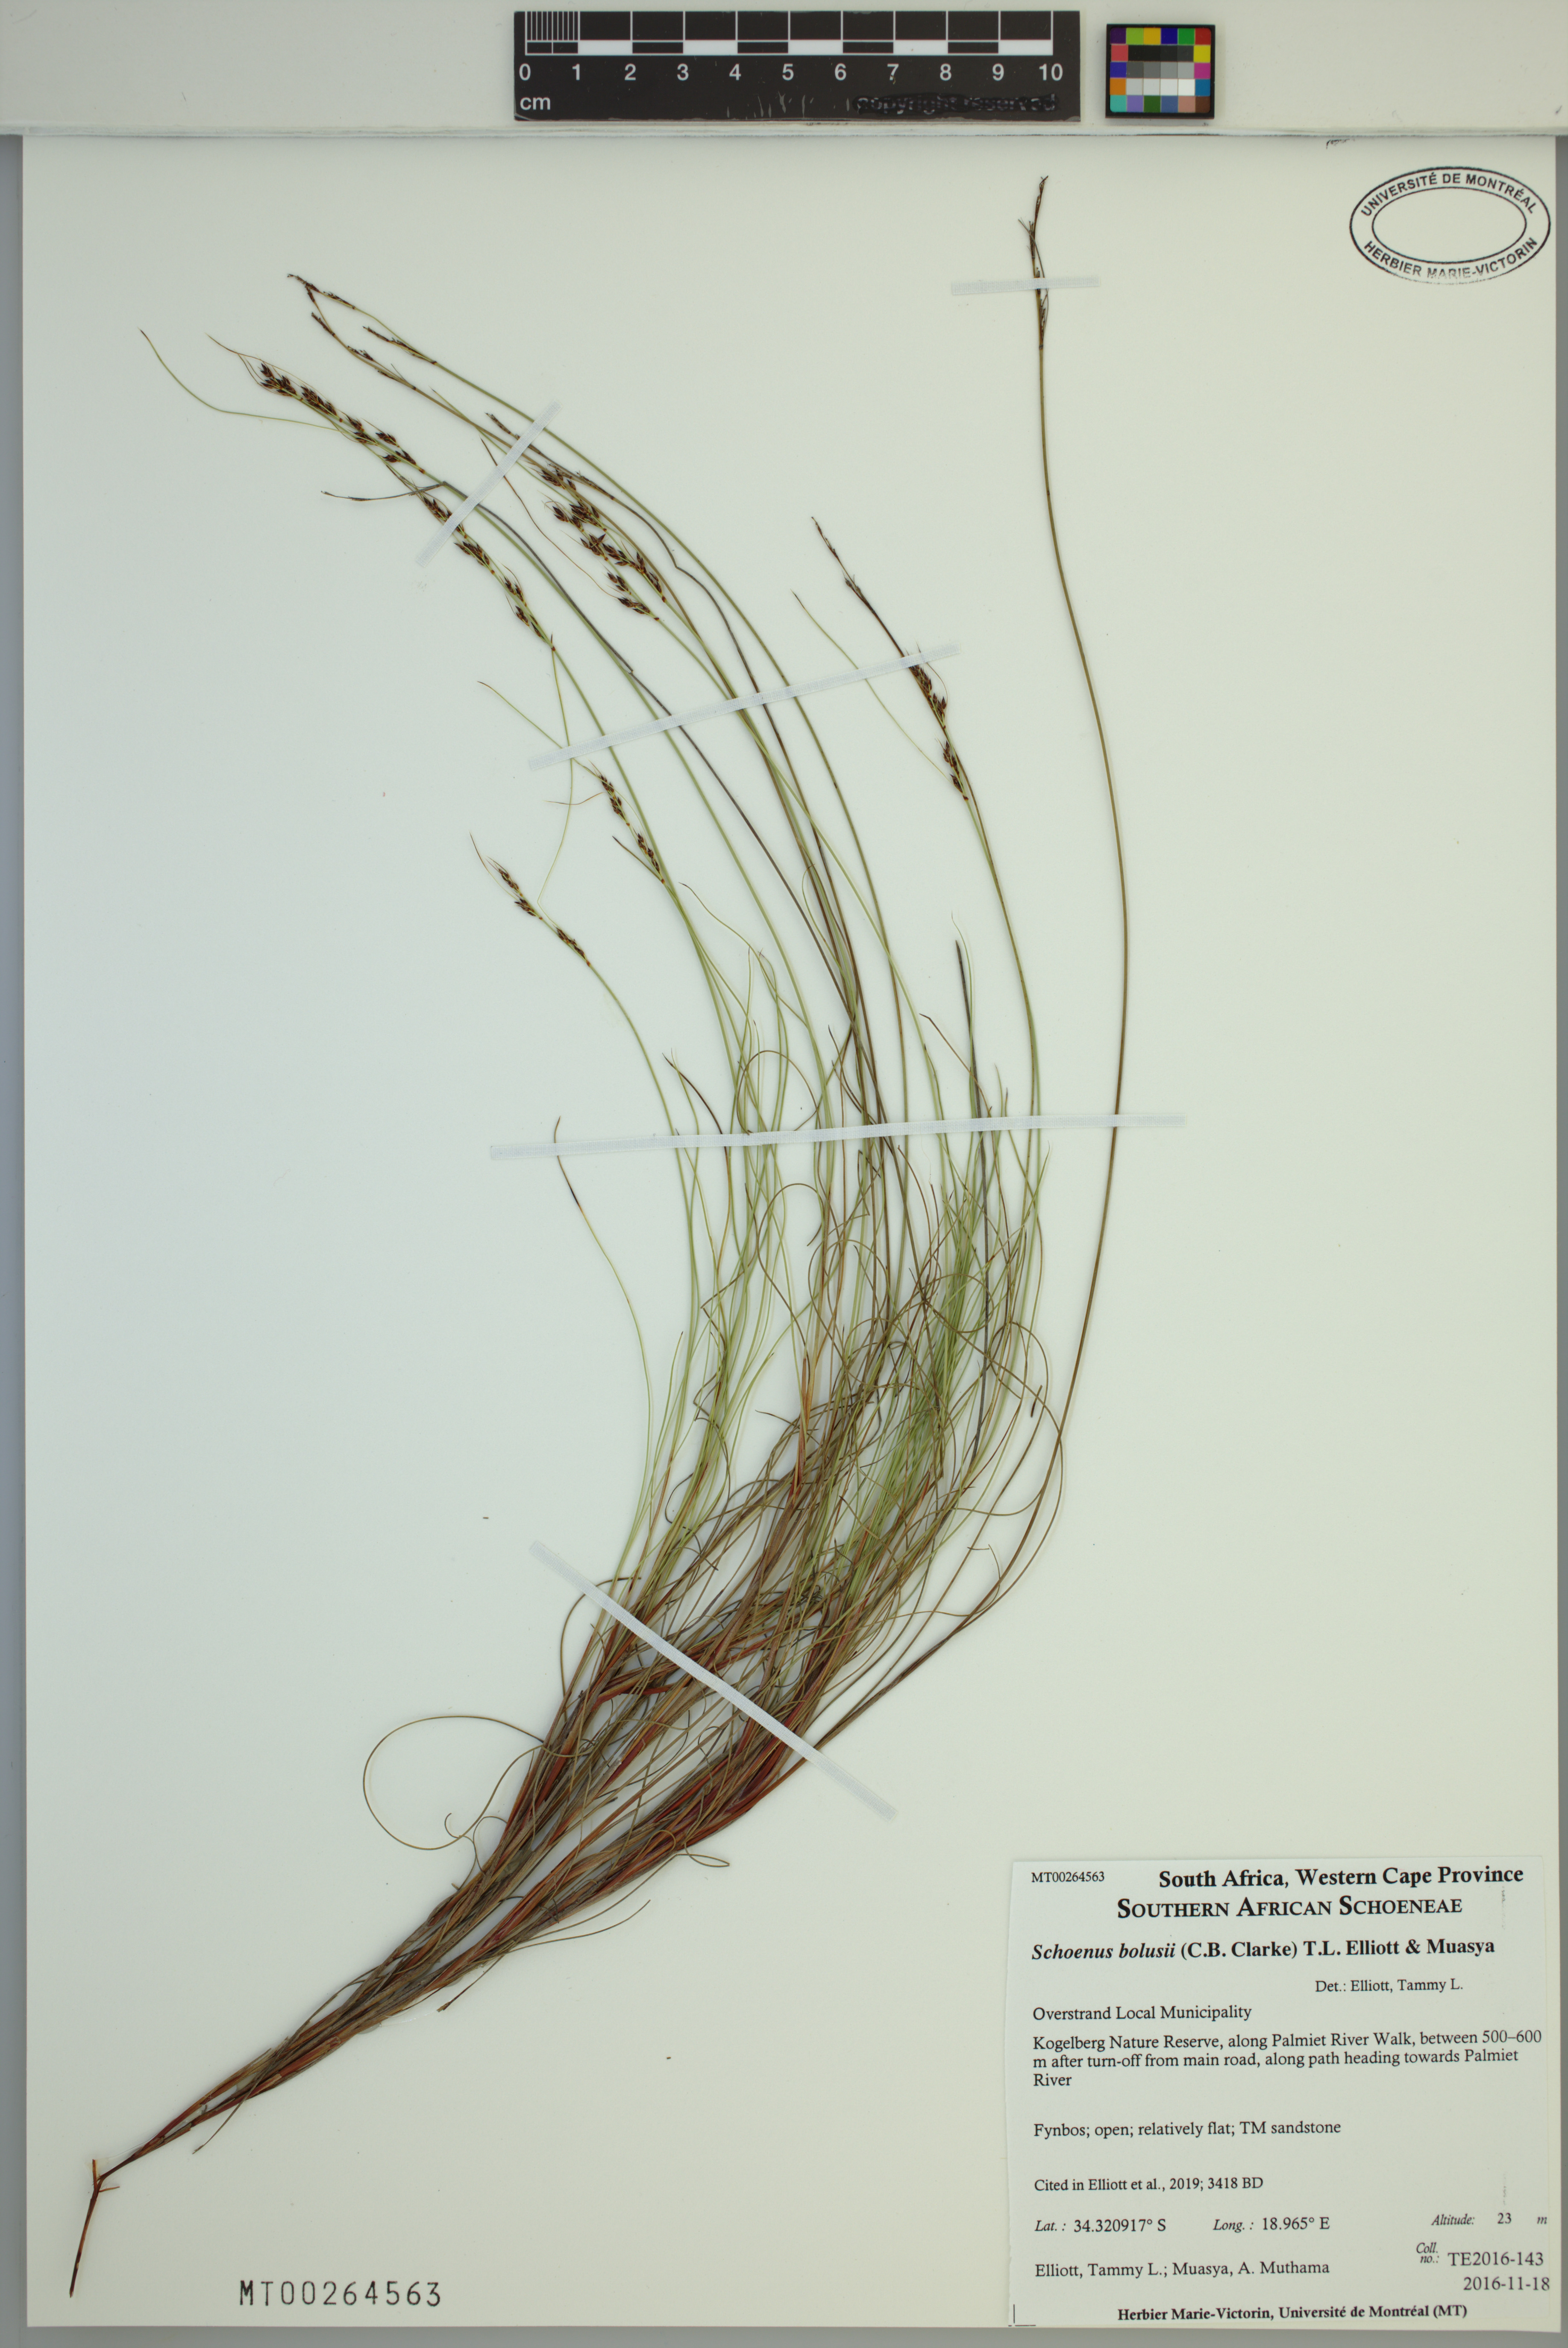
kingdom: Plantae
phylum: Tracheophyta
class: Liliopsida
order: Poales
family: Cyperaceae
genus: Schoenus
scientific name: Schoenus bolusii
